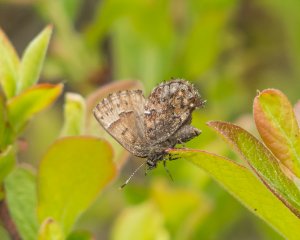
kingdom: Animalia
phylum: Arthropoda
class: Insecta
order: Lepidoptera
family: Lycaenidae
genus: Incisalia
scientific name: Incisalia lanoraieensis
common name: Bog Elfin
